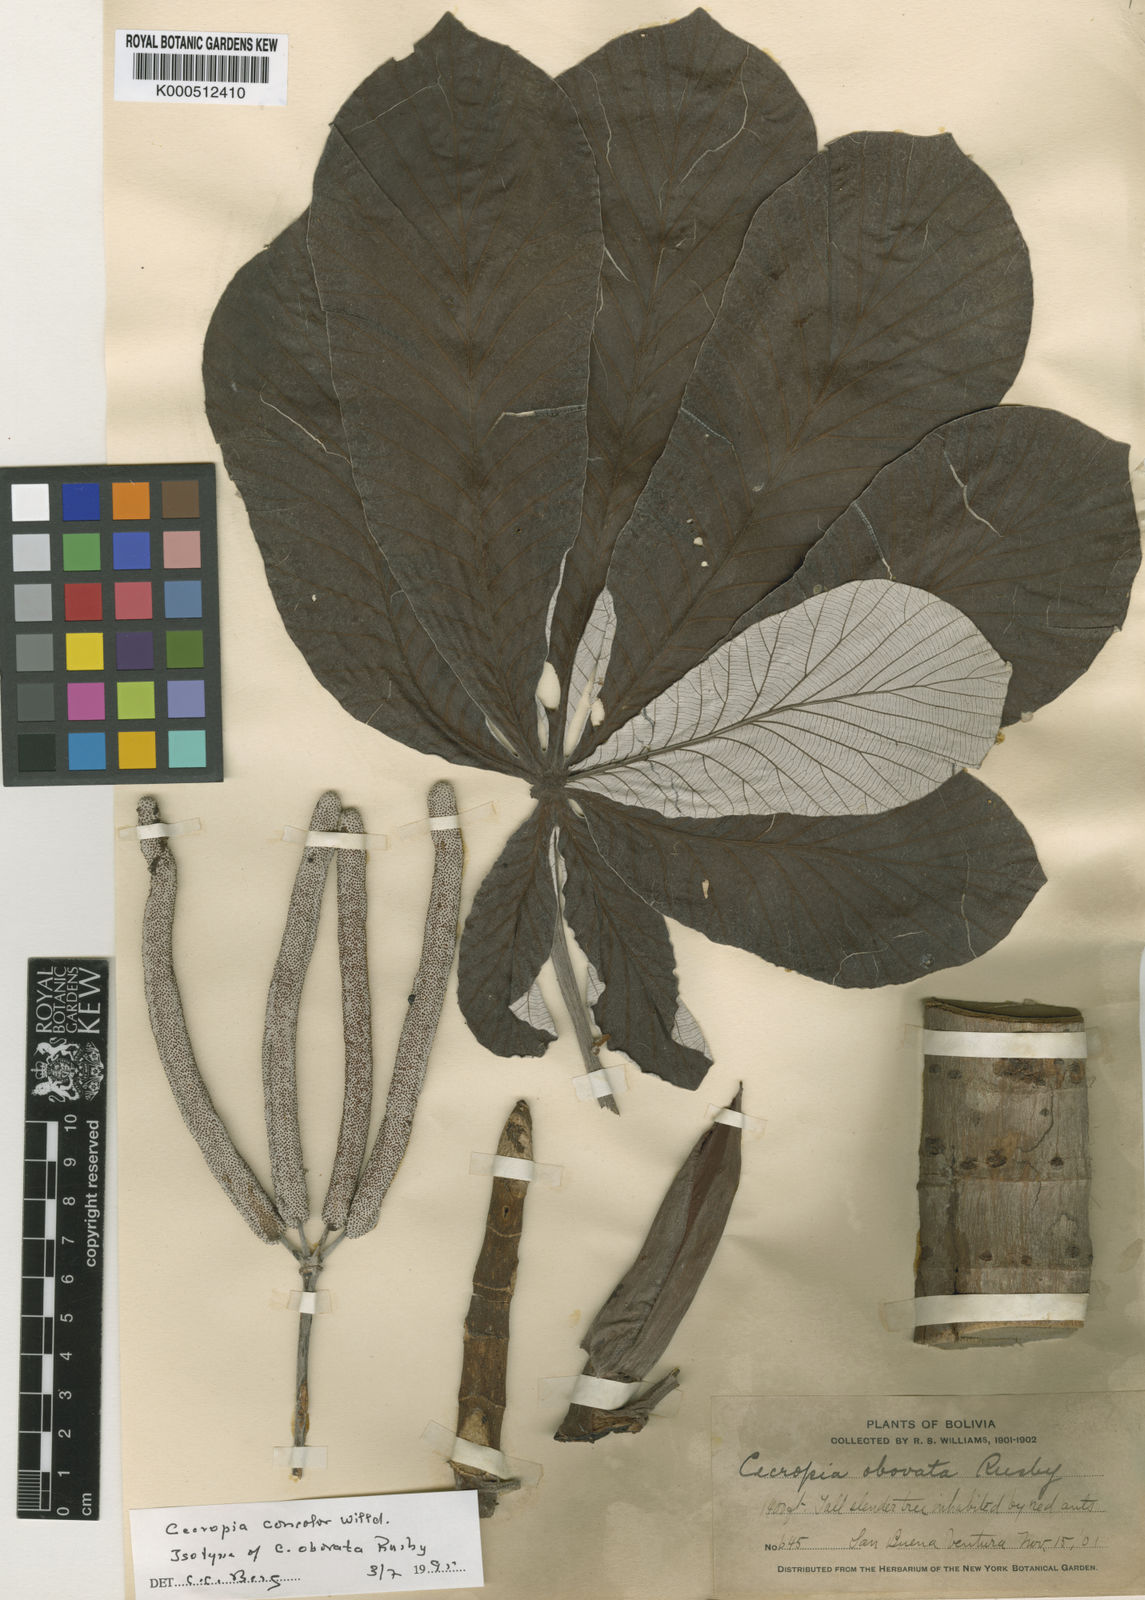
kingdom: Plantae
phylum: Tracheophyta
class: Magnoliopsida
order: Rosales
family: Urticaceae
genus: Cecropia
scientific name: Cecropia concolor
